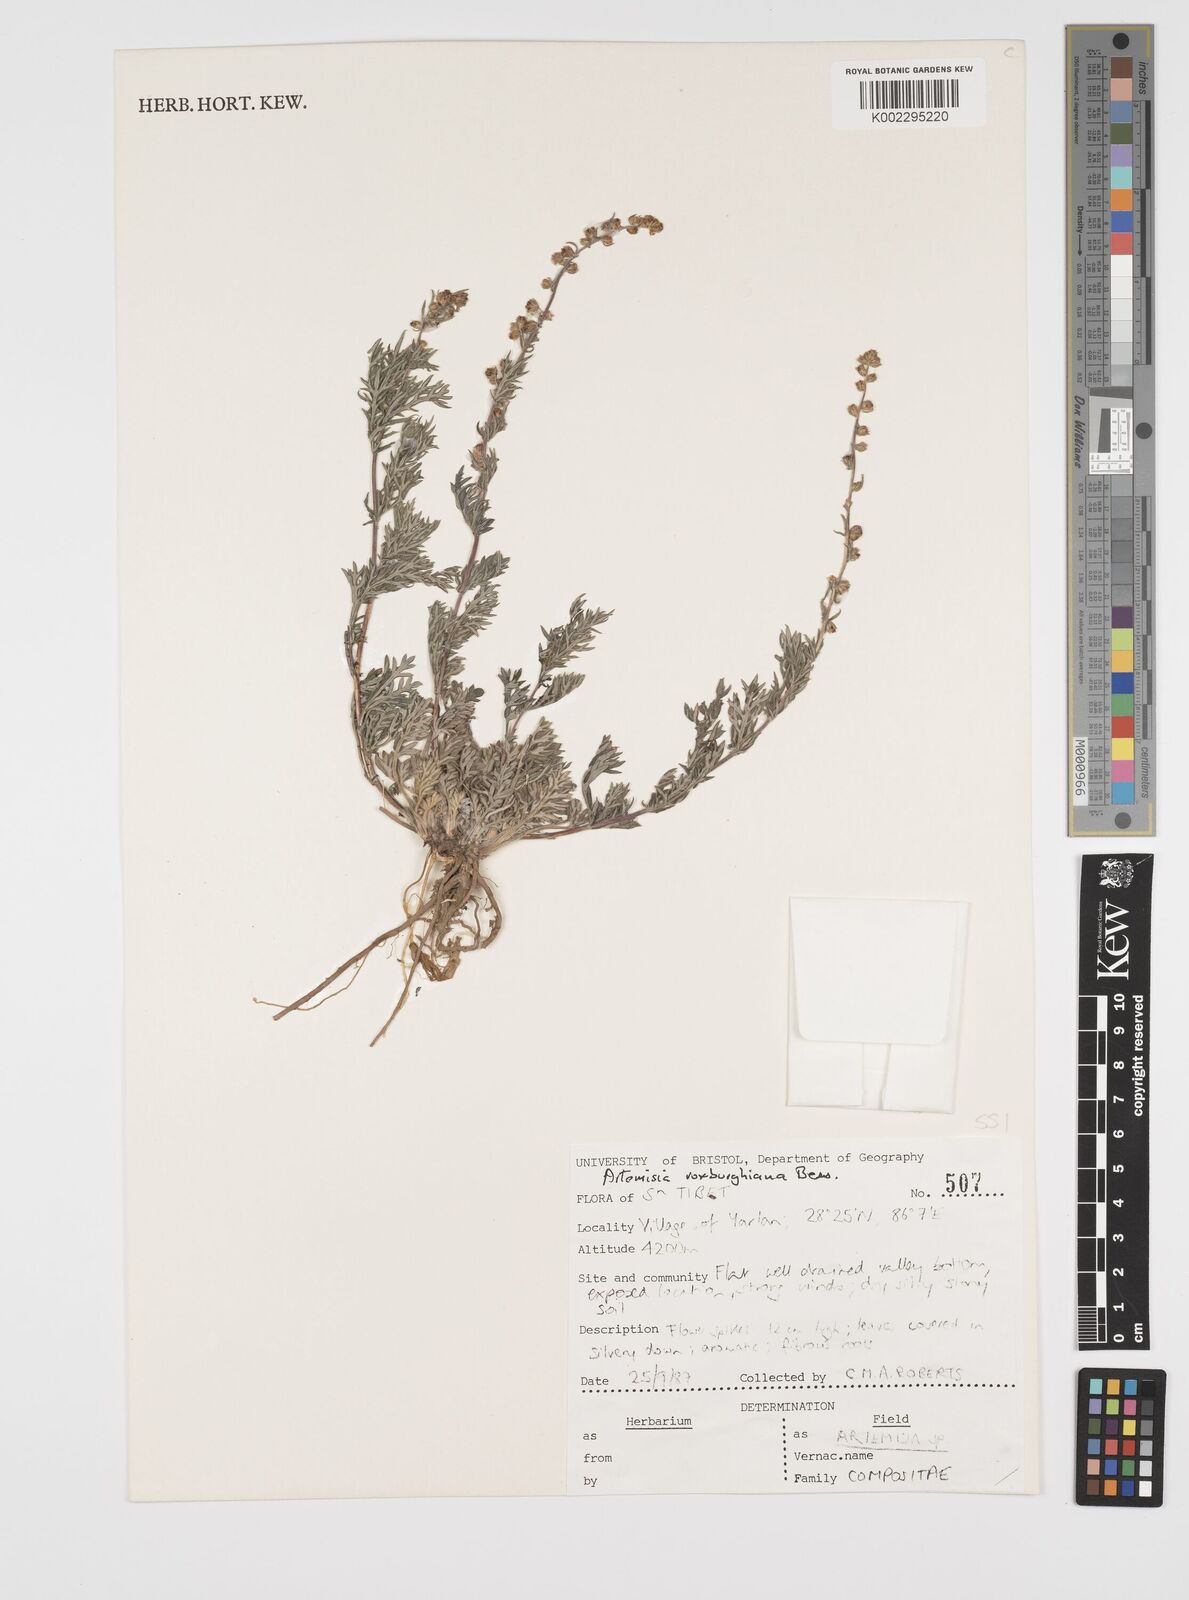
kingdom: Plantae
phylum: Tracheophyta
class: Magnoliopsida
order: Asterales
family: Asteraceae
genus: Artemisia
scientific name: Artemisia roxburghiana
